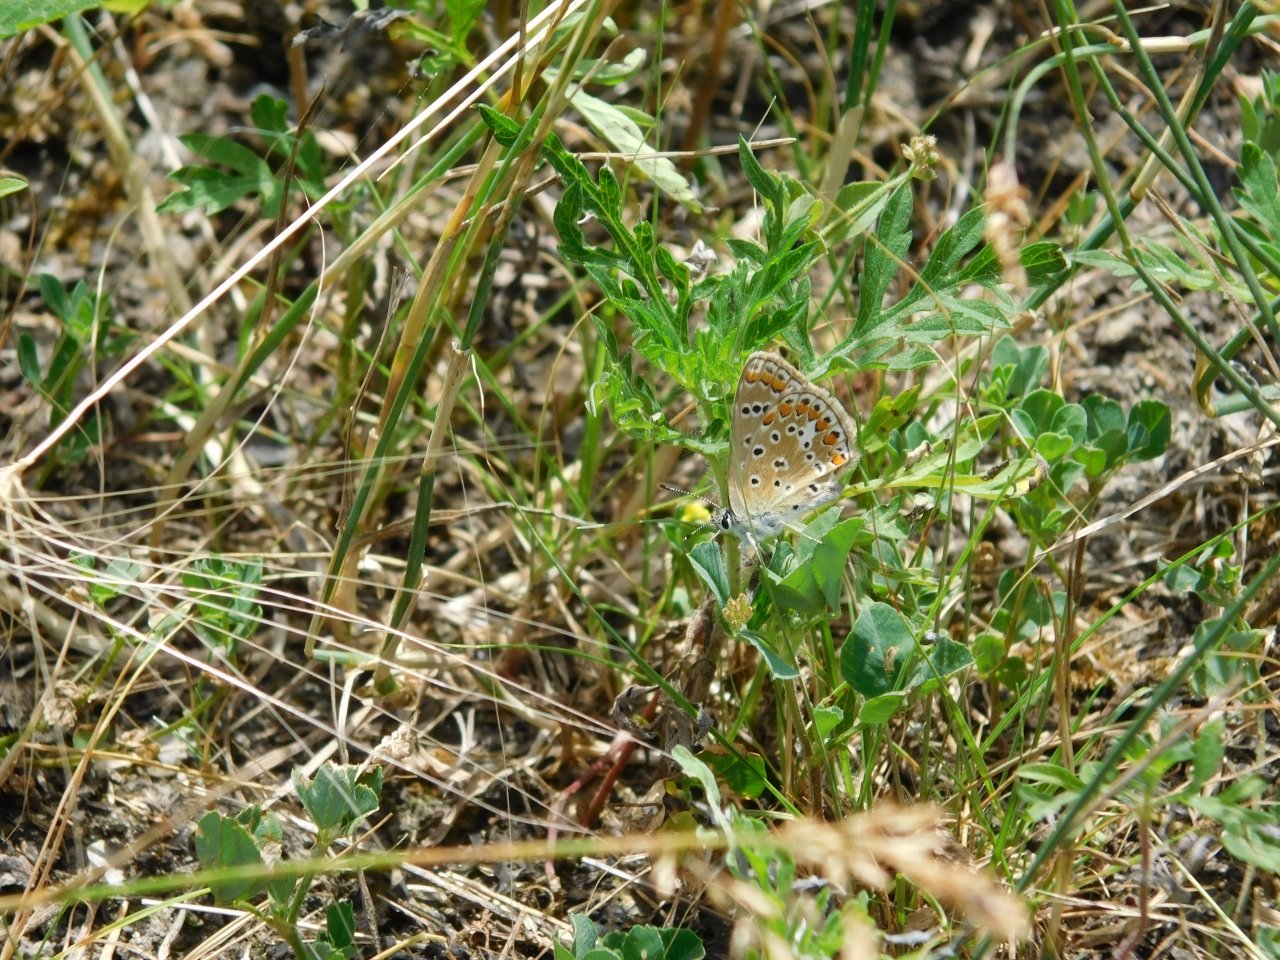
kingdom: Animalia
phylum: Arthropoda
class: Insecta
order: Lepidoptera
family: Lycaenidae
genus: Polyommatus
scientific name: Polyommatus icarus
